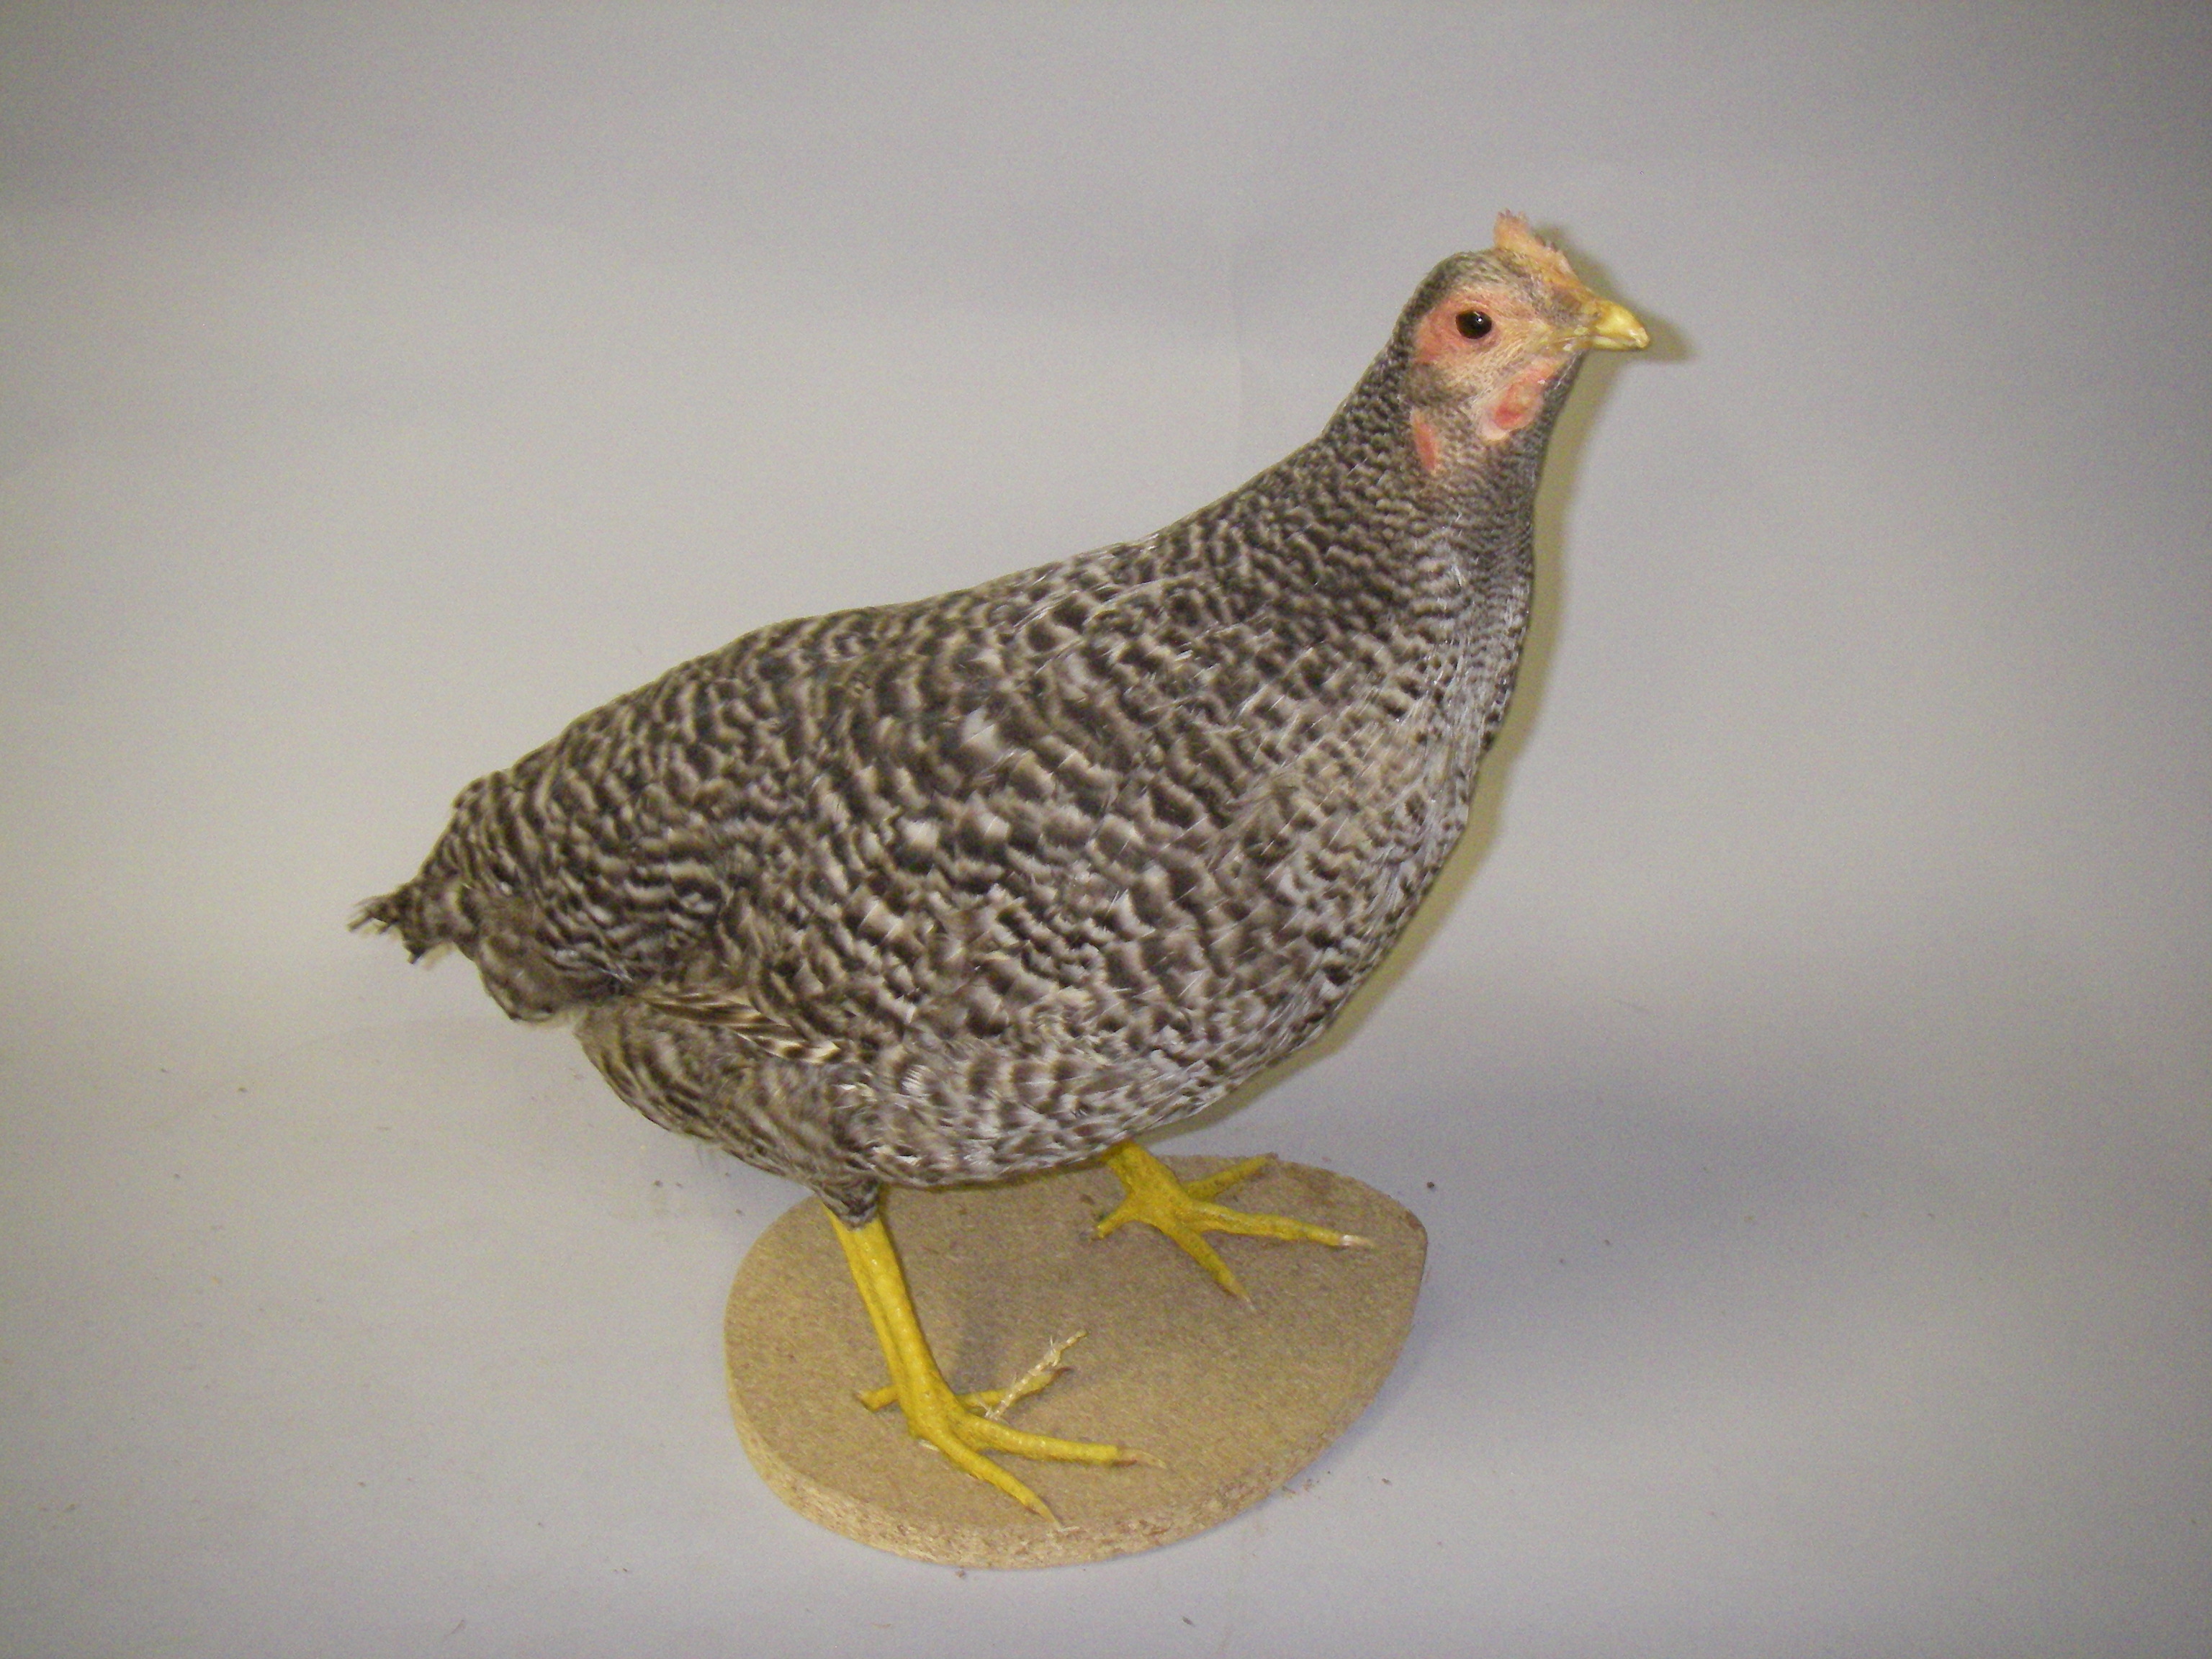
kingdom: Animalia
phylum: Chordata
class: Aves
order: Galliformes
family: Phasianidae
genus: Gallus
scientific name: Gallus gallus
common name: Red junglefowl
